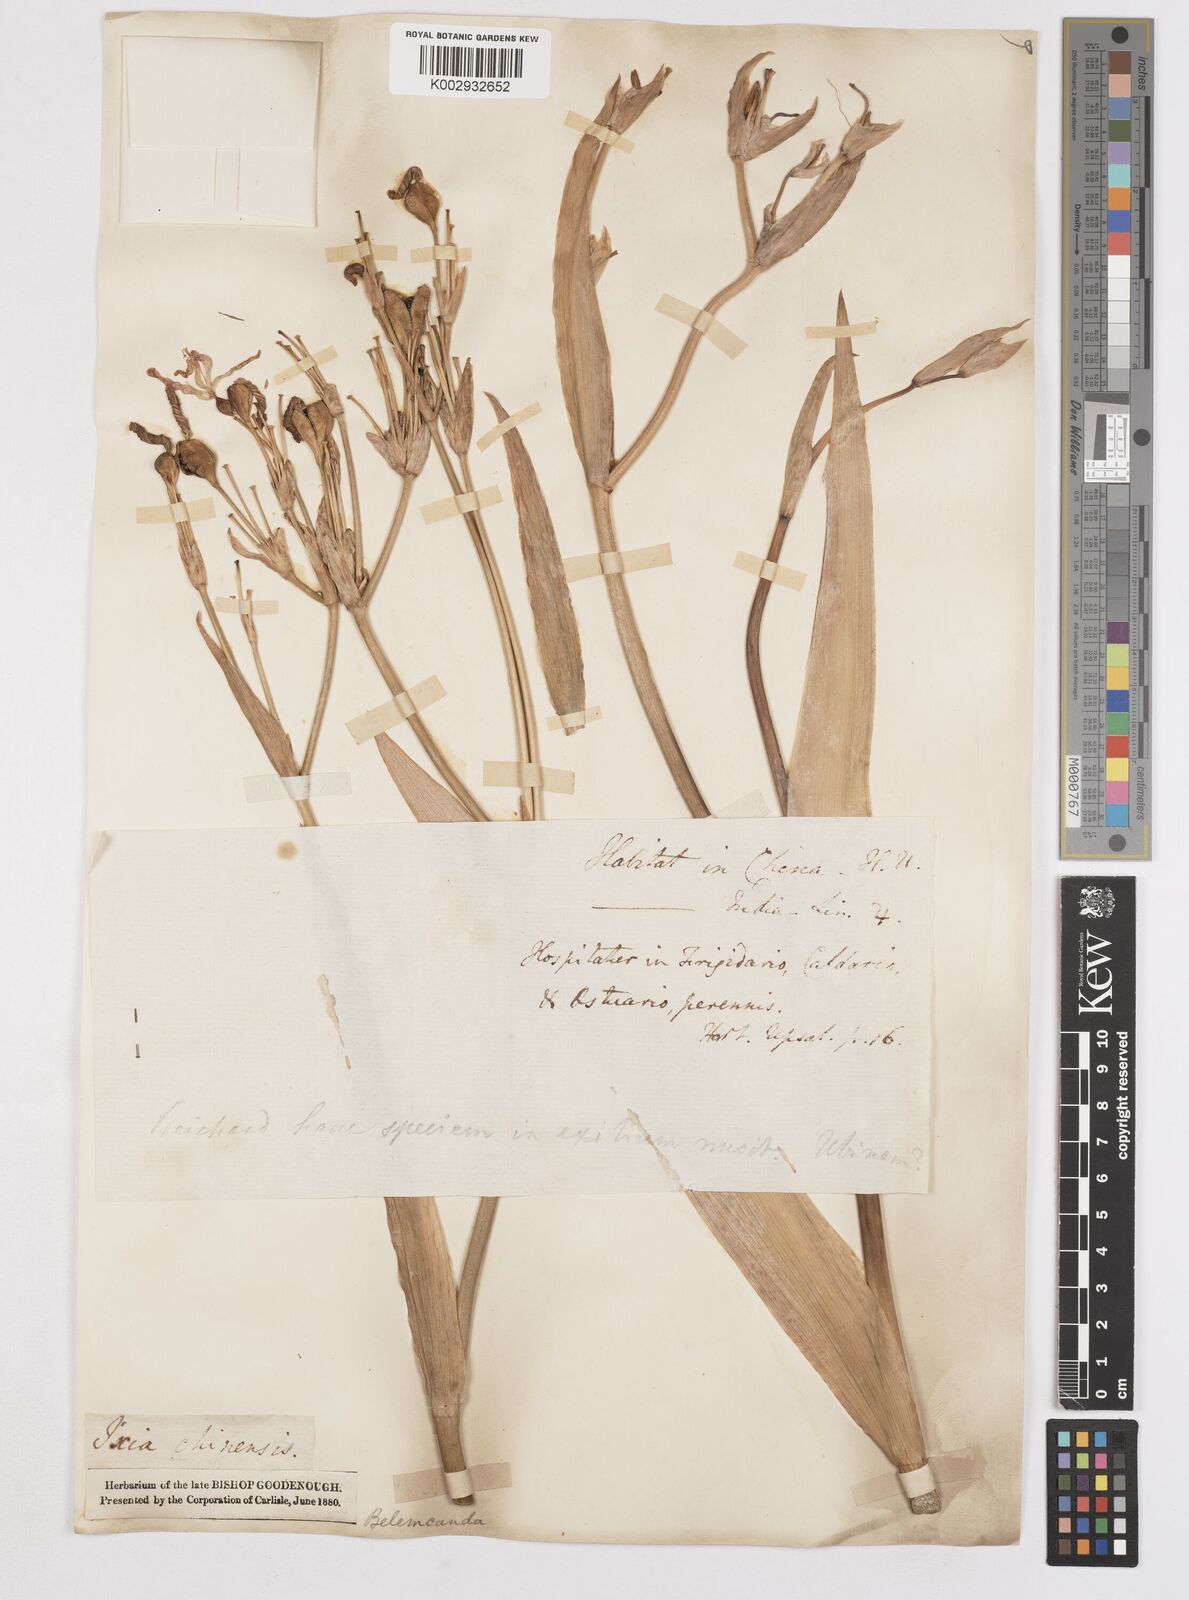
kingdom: Plantae
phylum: Tracheophyta
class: Liliopsida
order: Asparagales
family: Iridaceae
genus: Iris
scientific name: Iris
